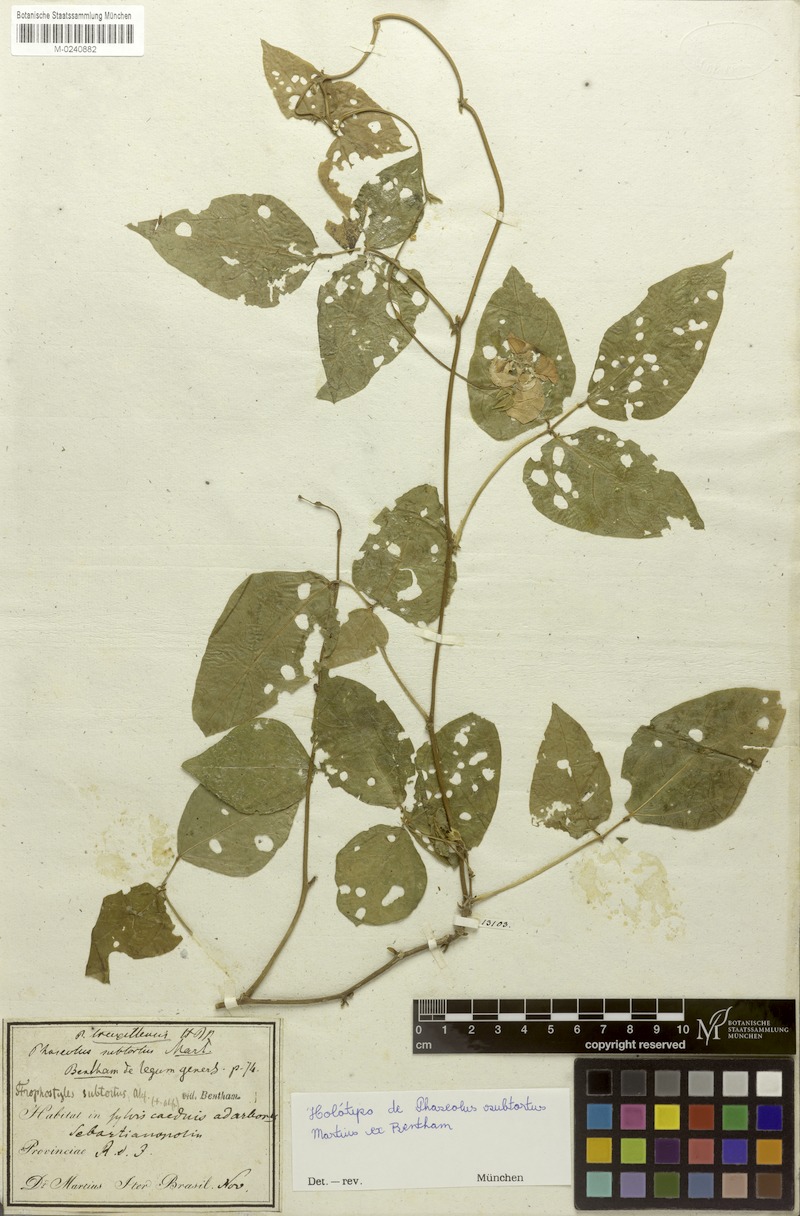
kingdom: Plantae
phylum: Tracheophyta
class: Magnoliopsida
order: Fabales
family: Fabaceae
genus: Leptospron
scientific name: Leptospron adenanthum
